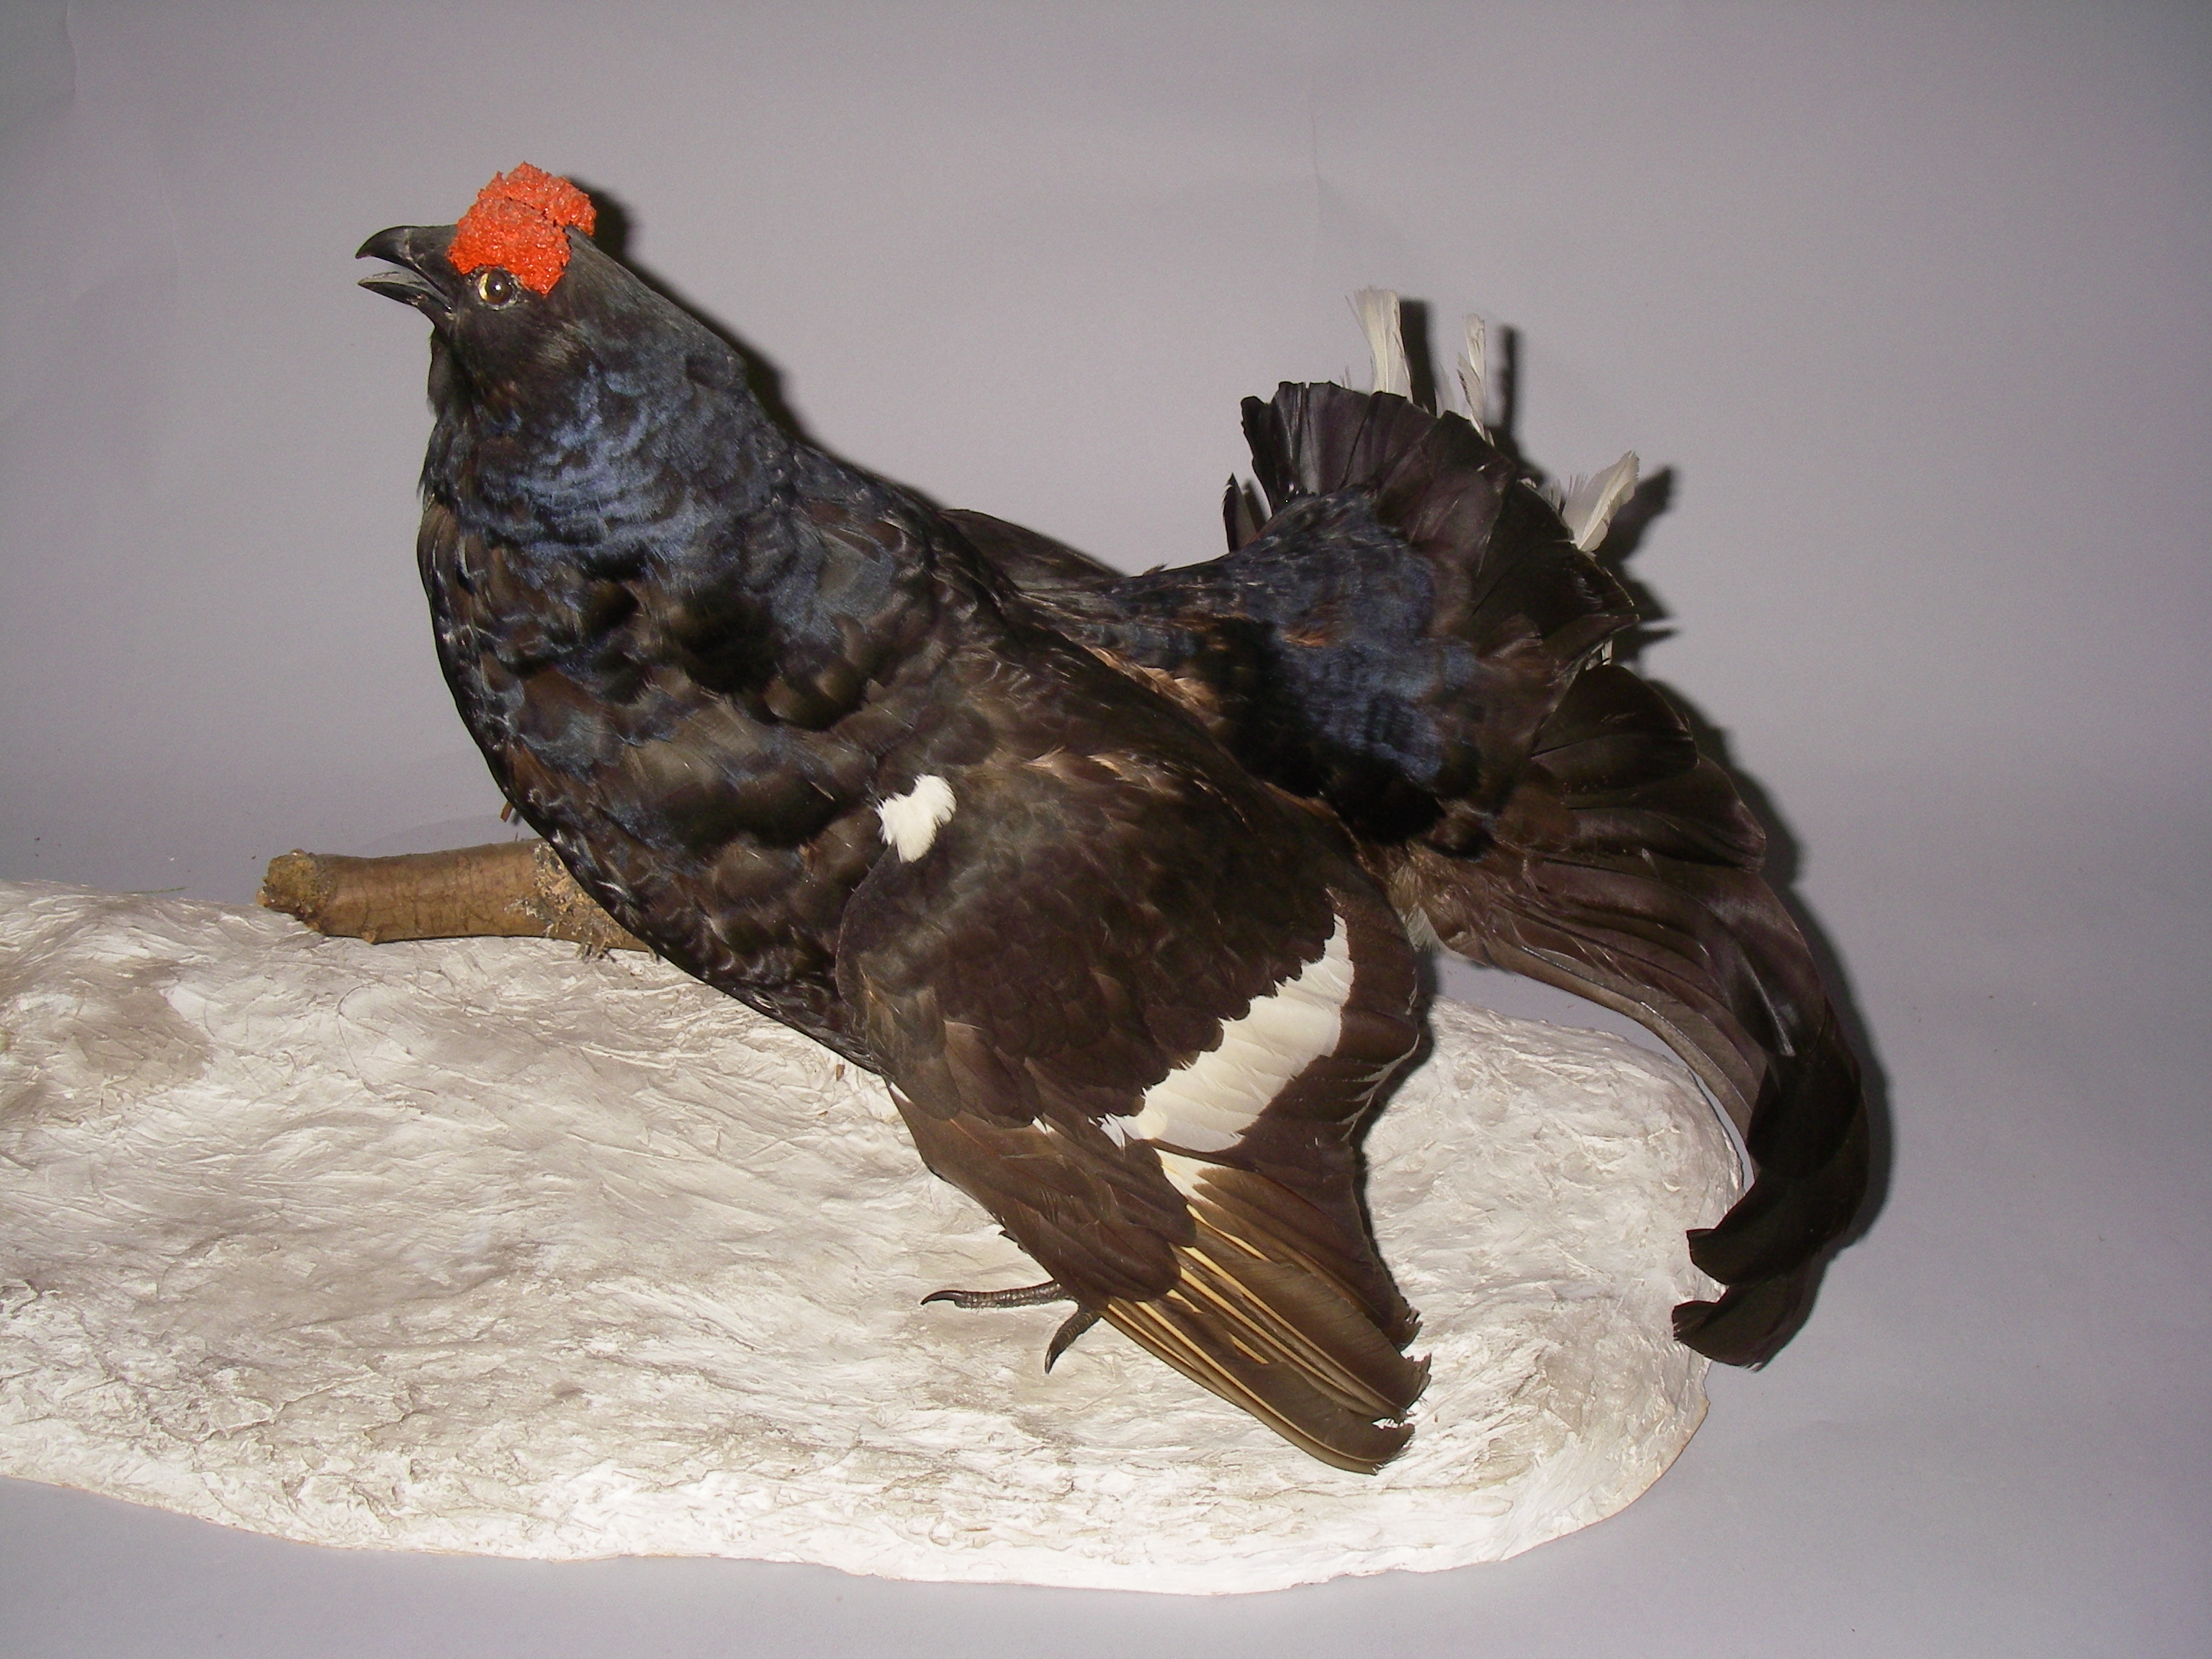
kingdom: Animalia
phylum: Chordata
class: Aves
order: Galliformes
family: Phasianidae
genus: Lyrurus
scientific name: Lyrurus tetrix
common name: Black grouse
